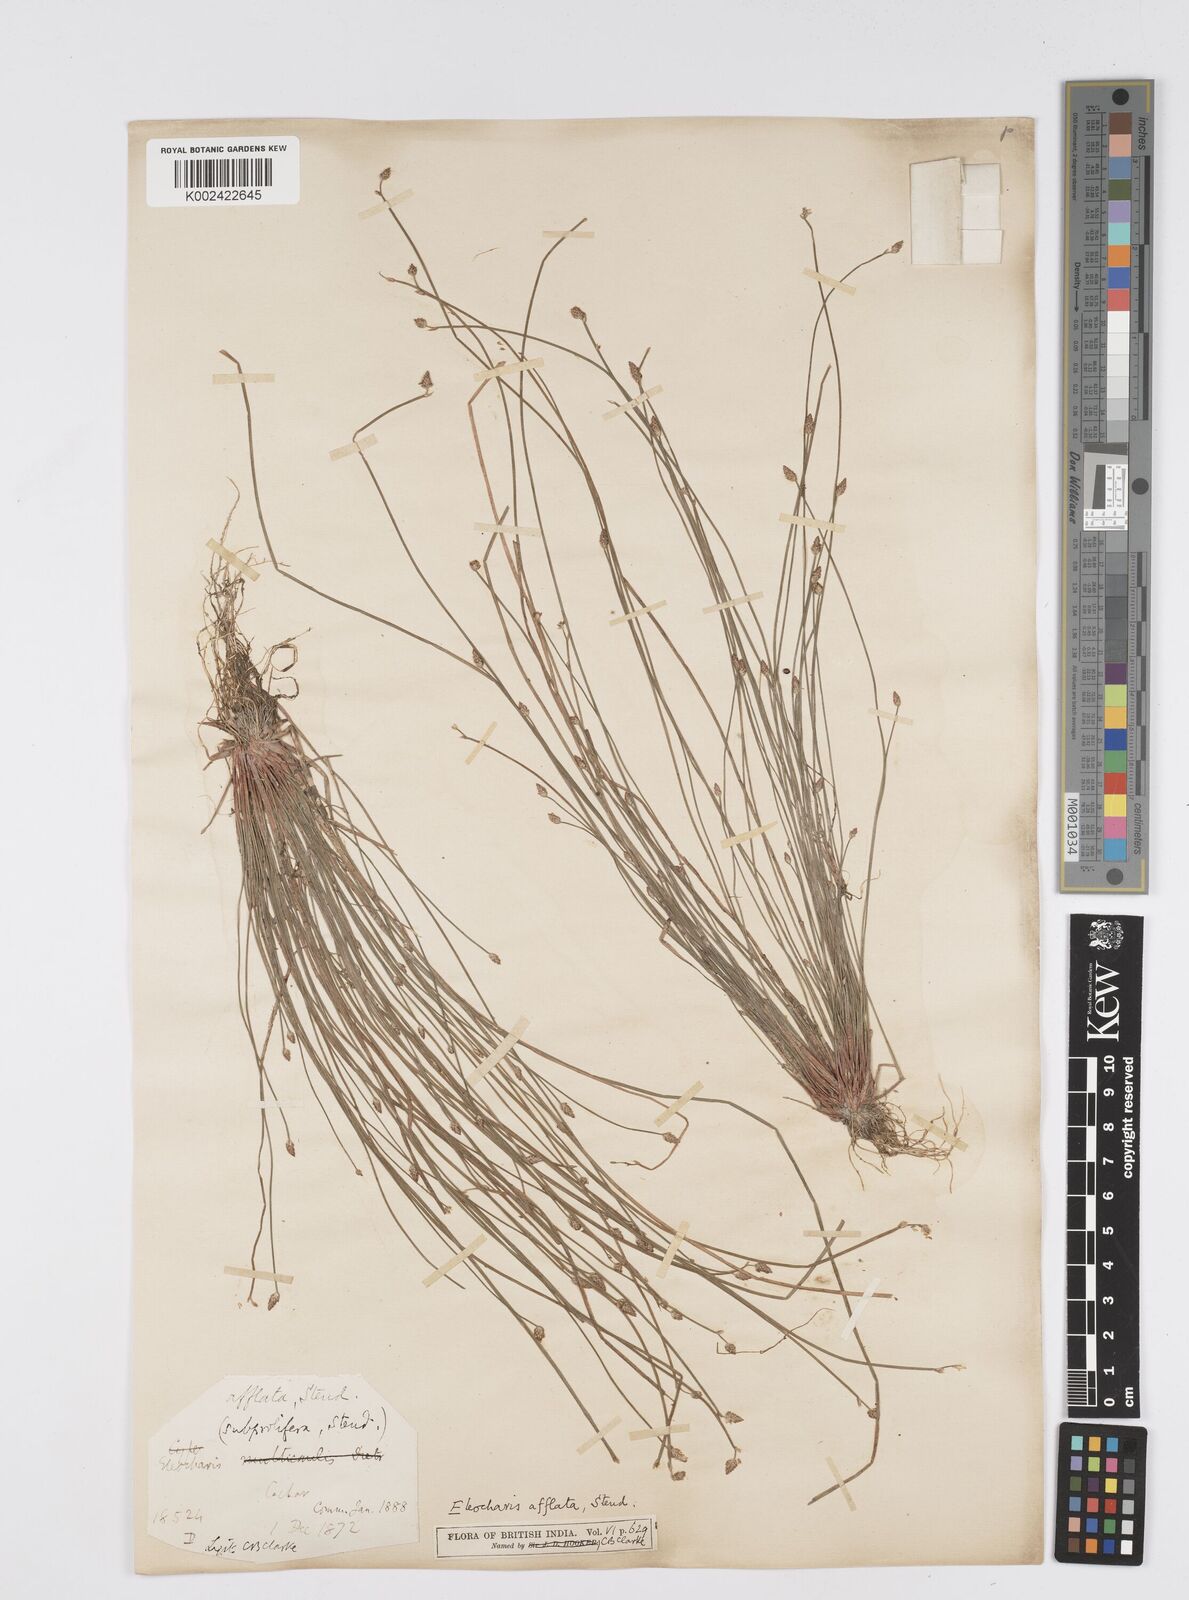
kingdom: Plantae
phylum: Tracheophyta
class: Liliopsida
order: Poales
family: Cyperaceae
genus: Eleocharis
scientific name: Eleocharis pellucida
